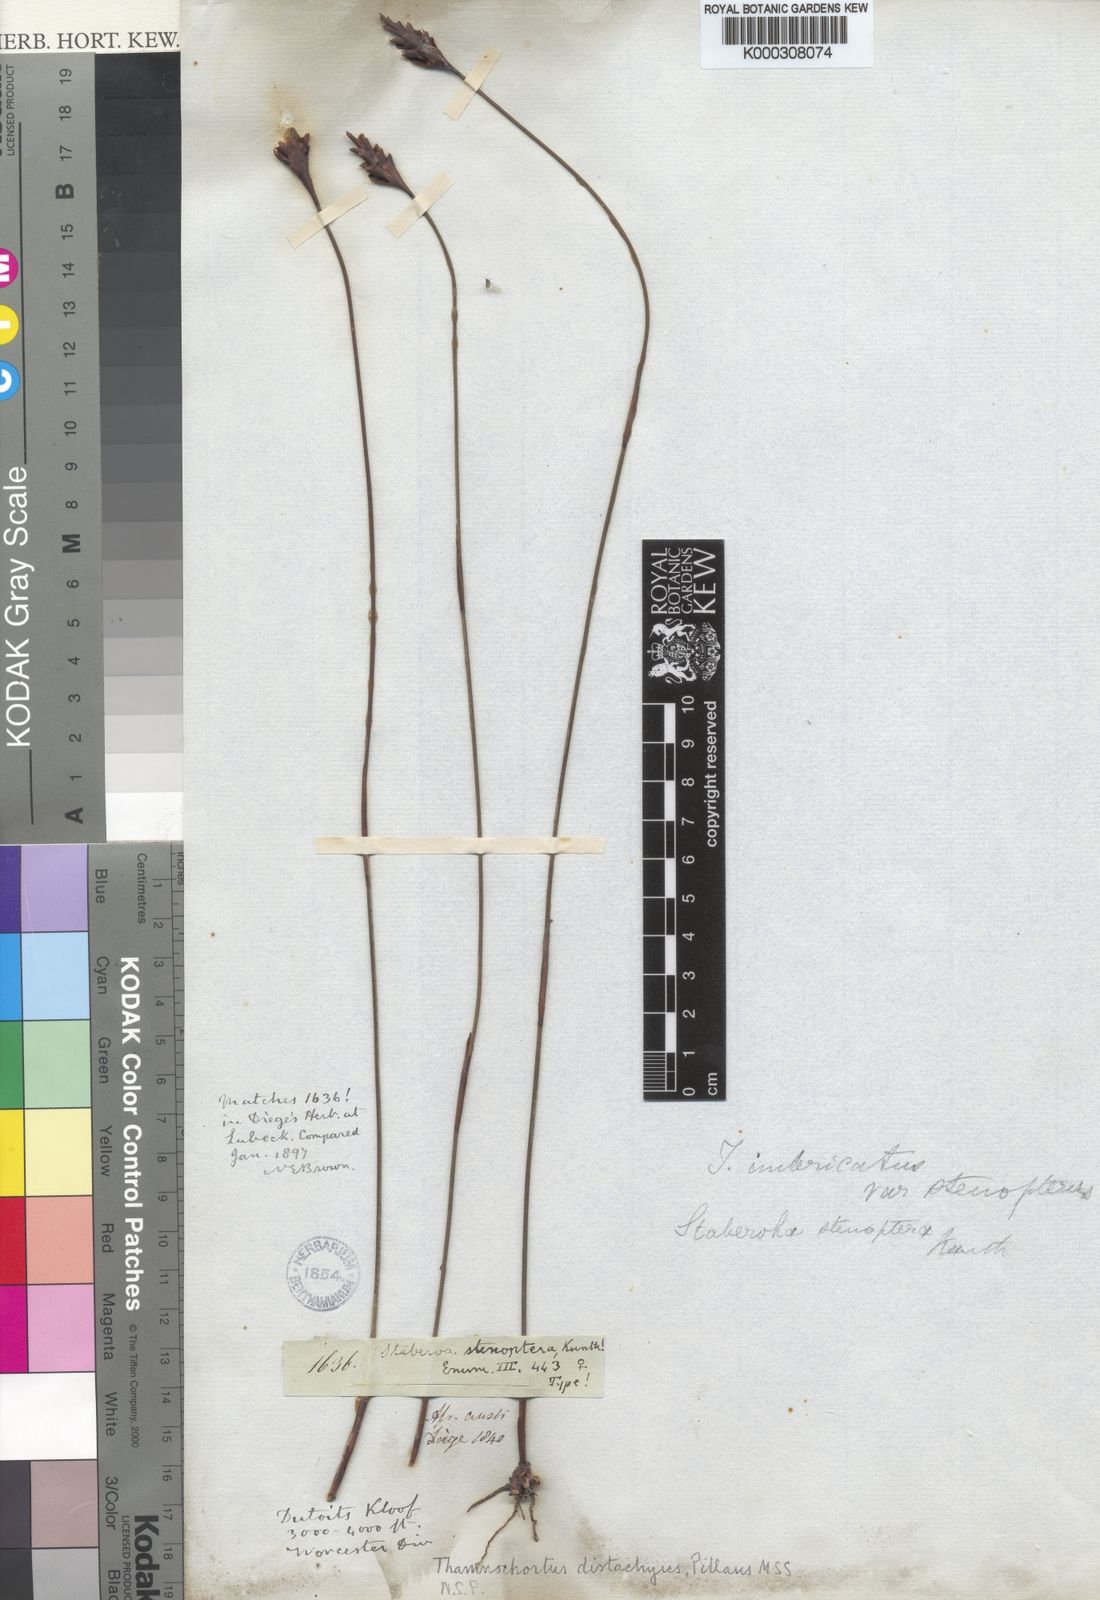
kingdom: Plantae
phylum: Tracheophyta
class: Liliopsida
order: Poales
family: Restionaceae
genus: Staberoha
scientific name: Staberoha aemula
